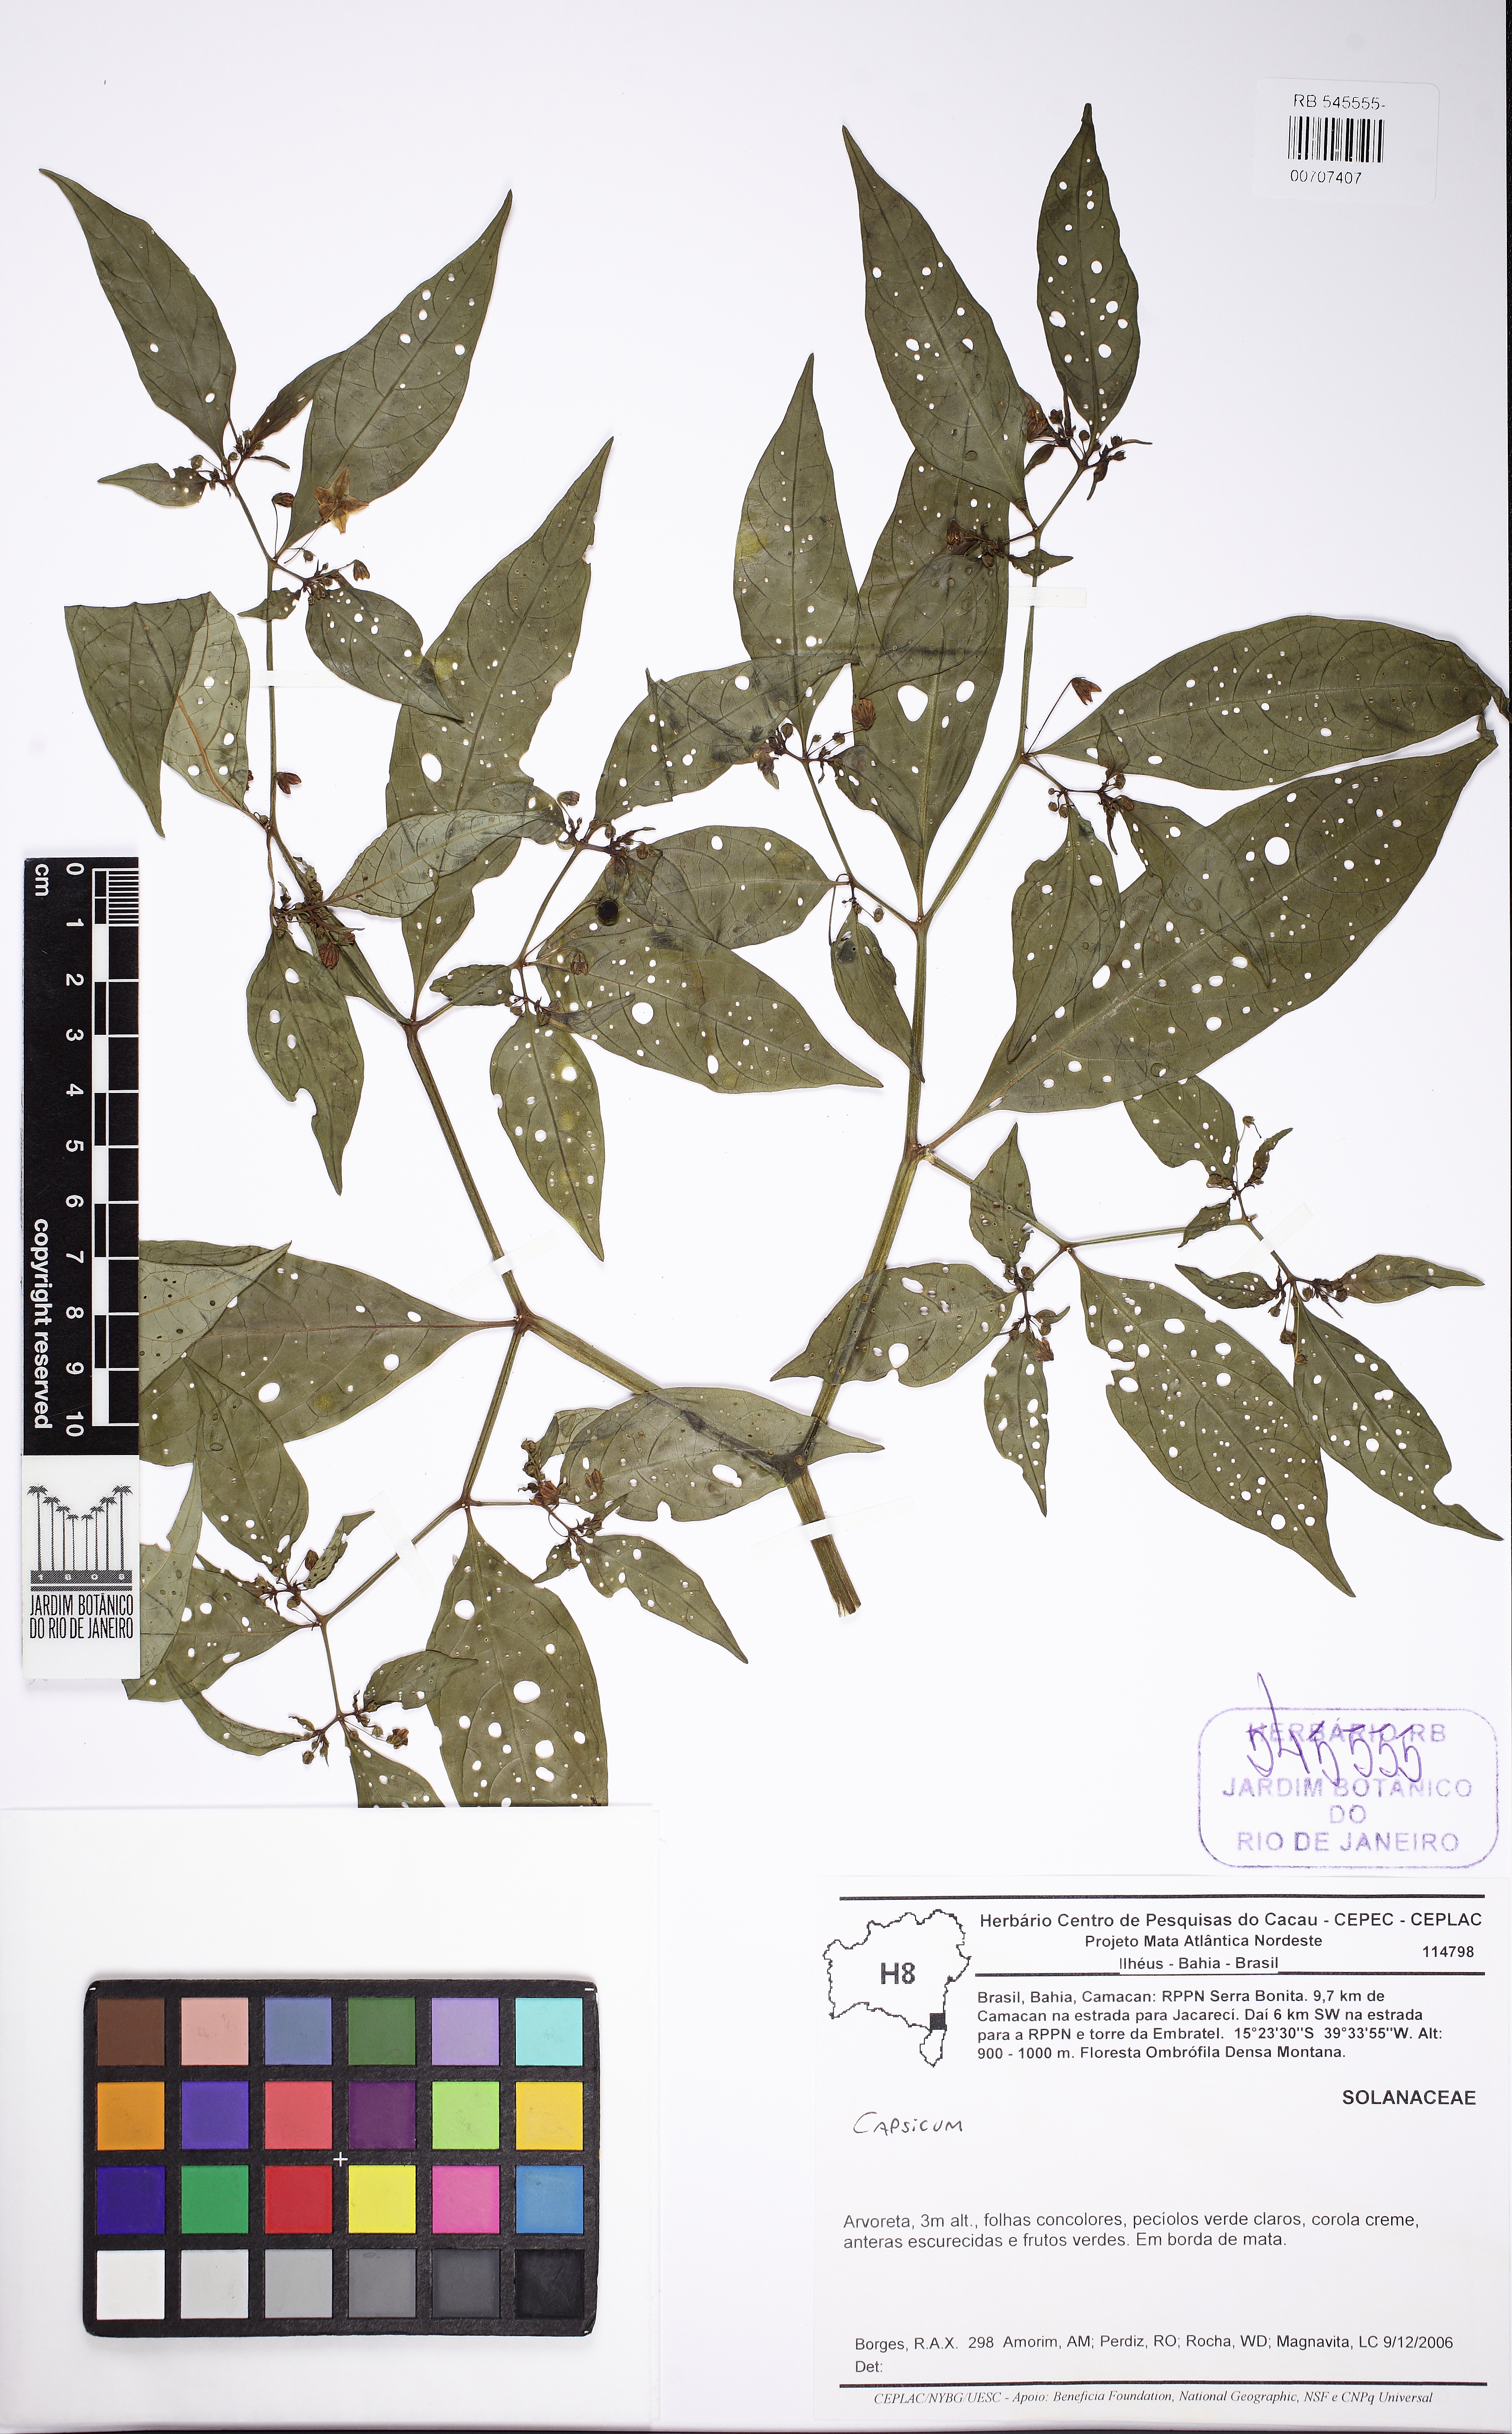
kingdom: Plantae
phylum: Tracheophyta
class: Magnoliopsida
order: Solanales
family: Solanaceae
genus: Capsicum
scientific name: Capsicum mirabile
